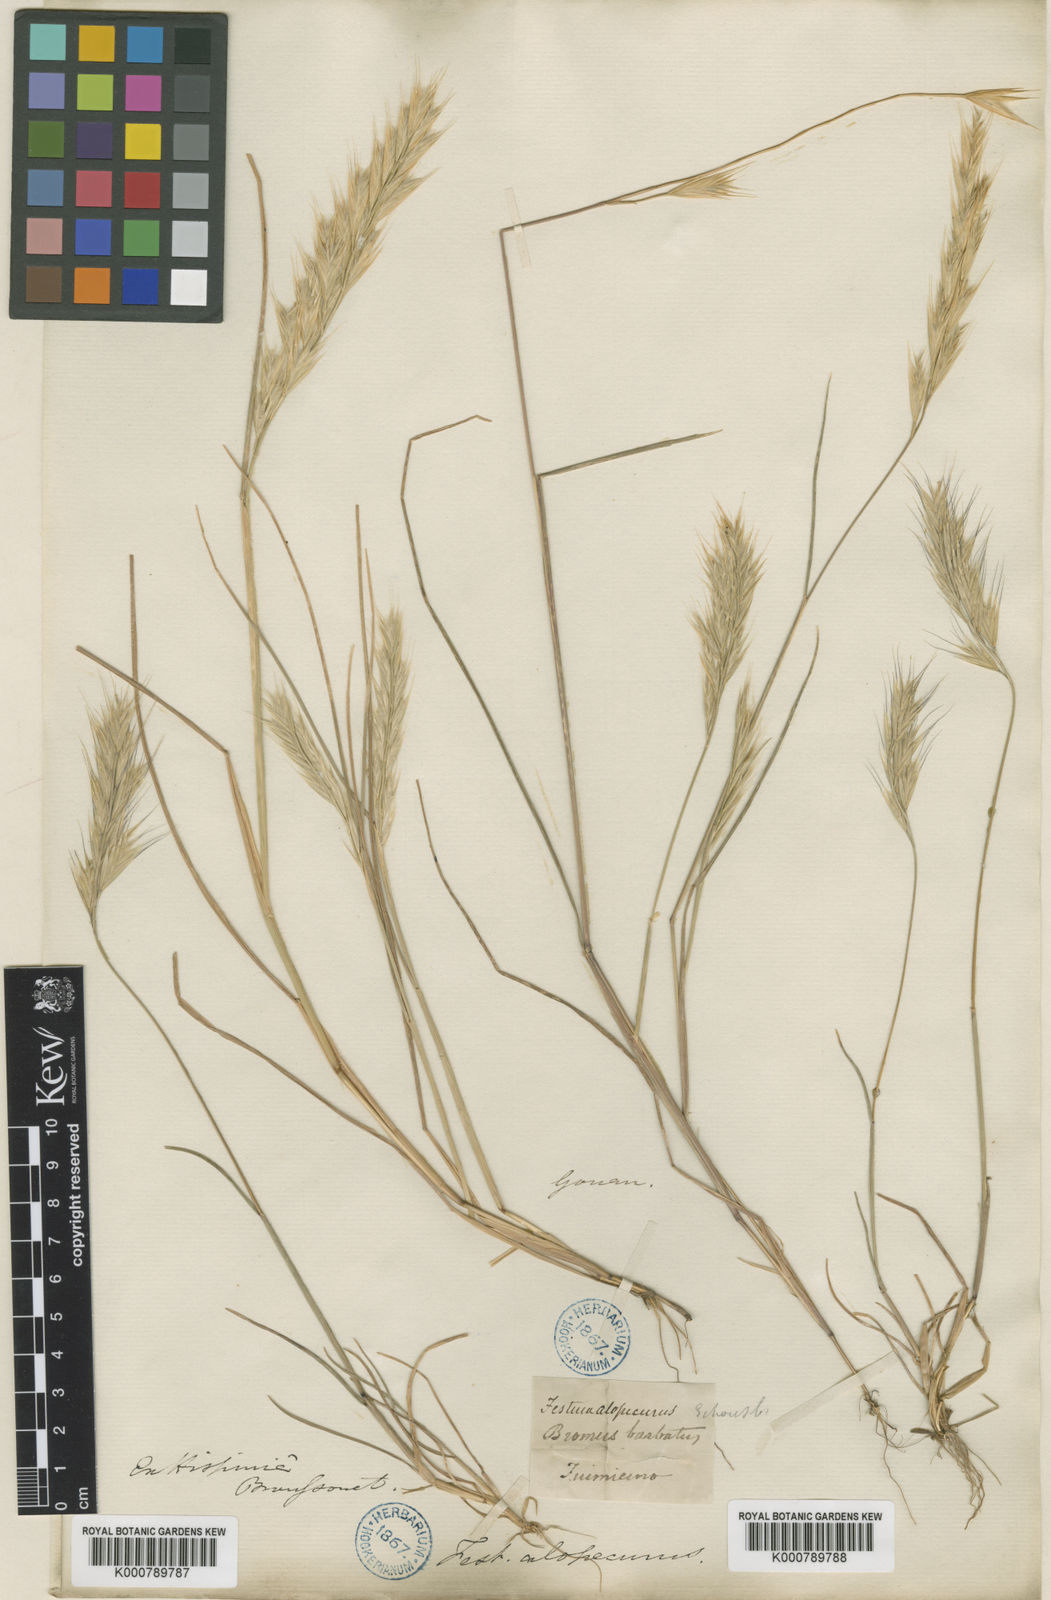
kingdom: Plantae
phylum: Tracheophyta
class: Liliopsida
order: Poales
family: Poaceae
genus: Festuca
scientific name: Festuca
